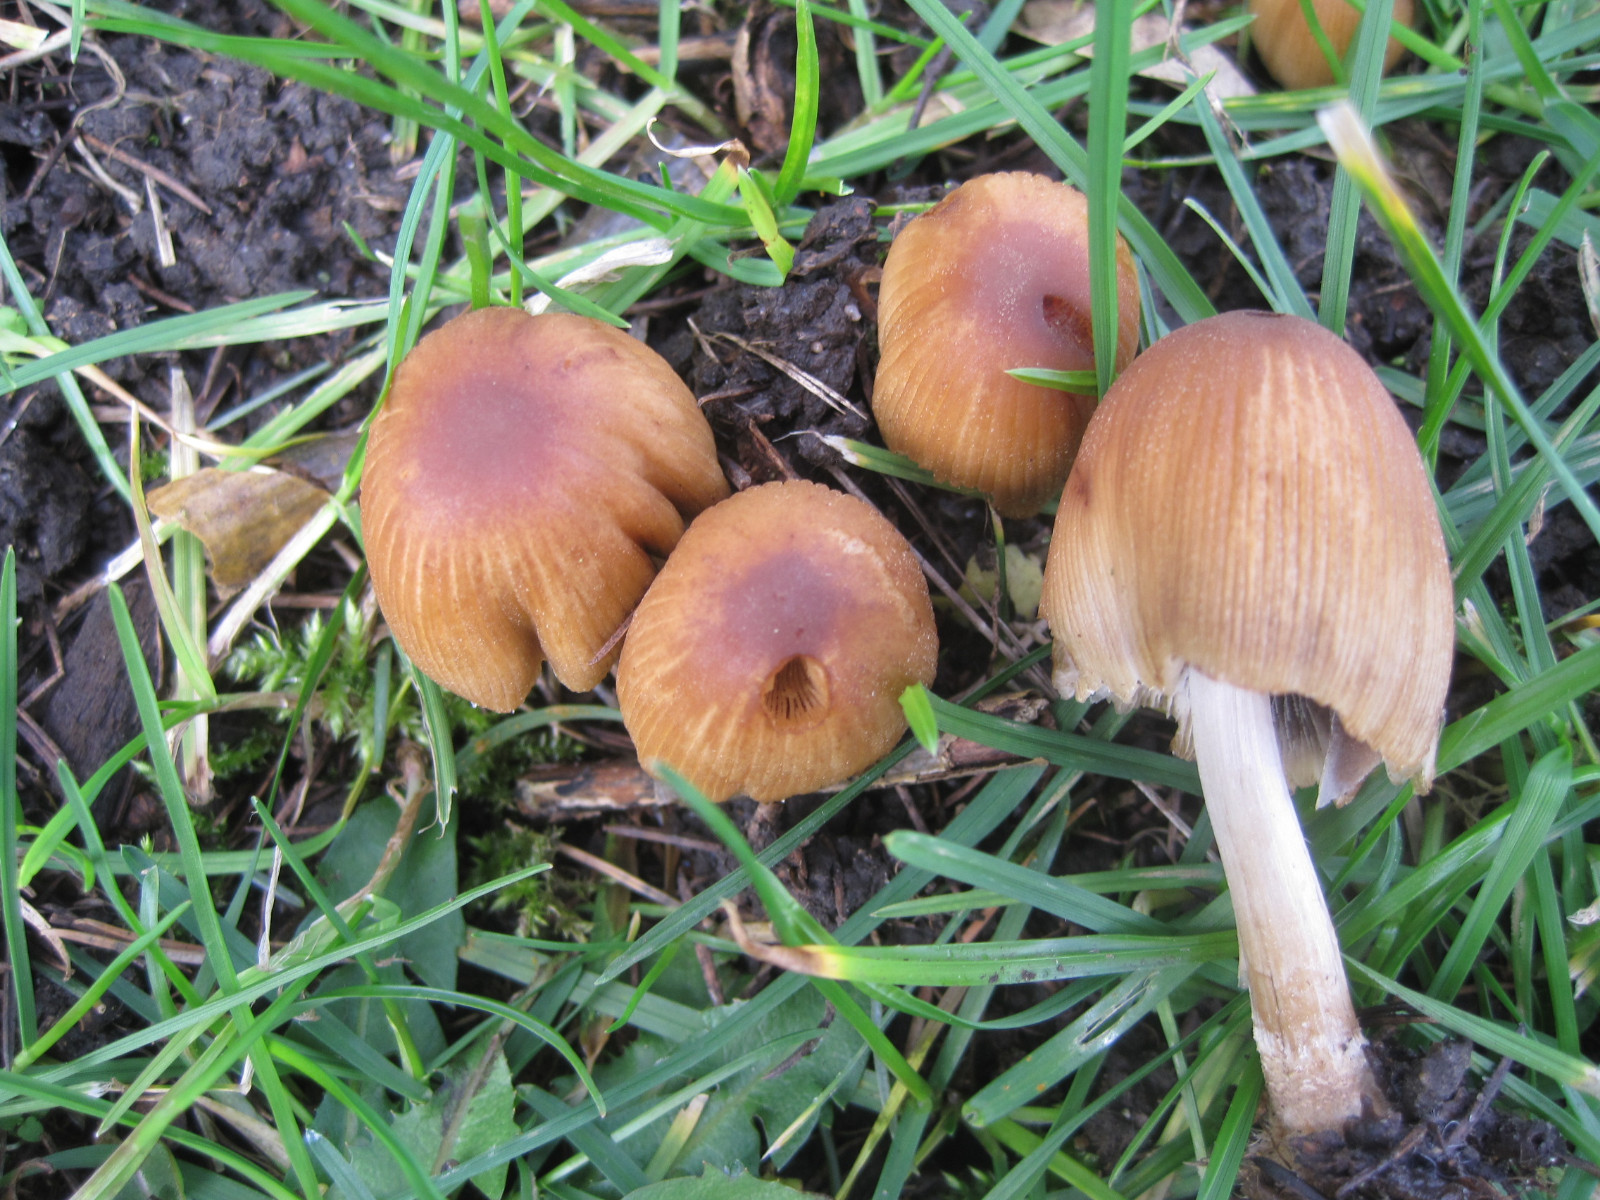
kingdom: Fungi
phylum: Basidiomycota
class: Agaricomycetes
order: Agaricales
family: Psathyrellaceae
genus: Coprinellus
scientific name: Coprinellus micaceus
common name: glimmer-blækhat
